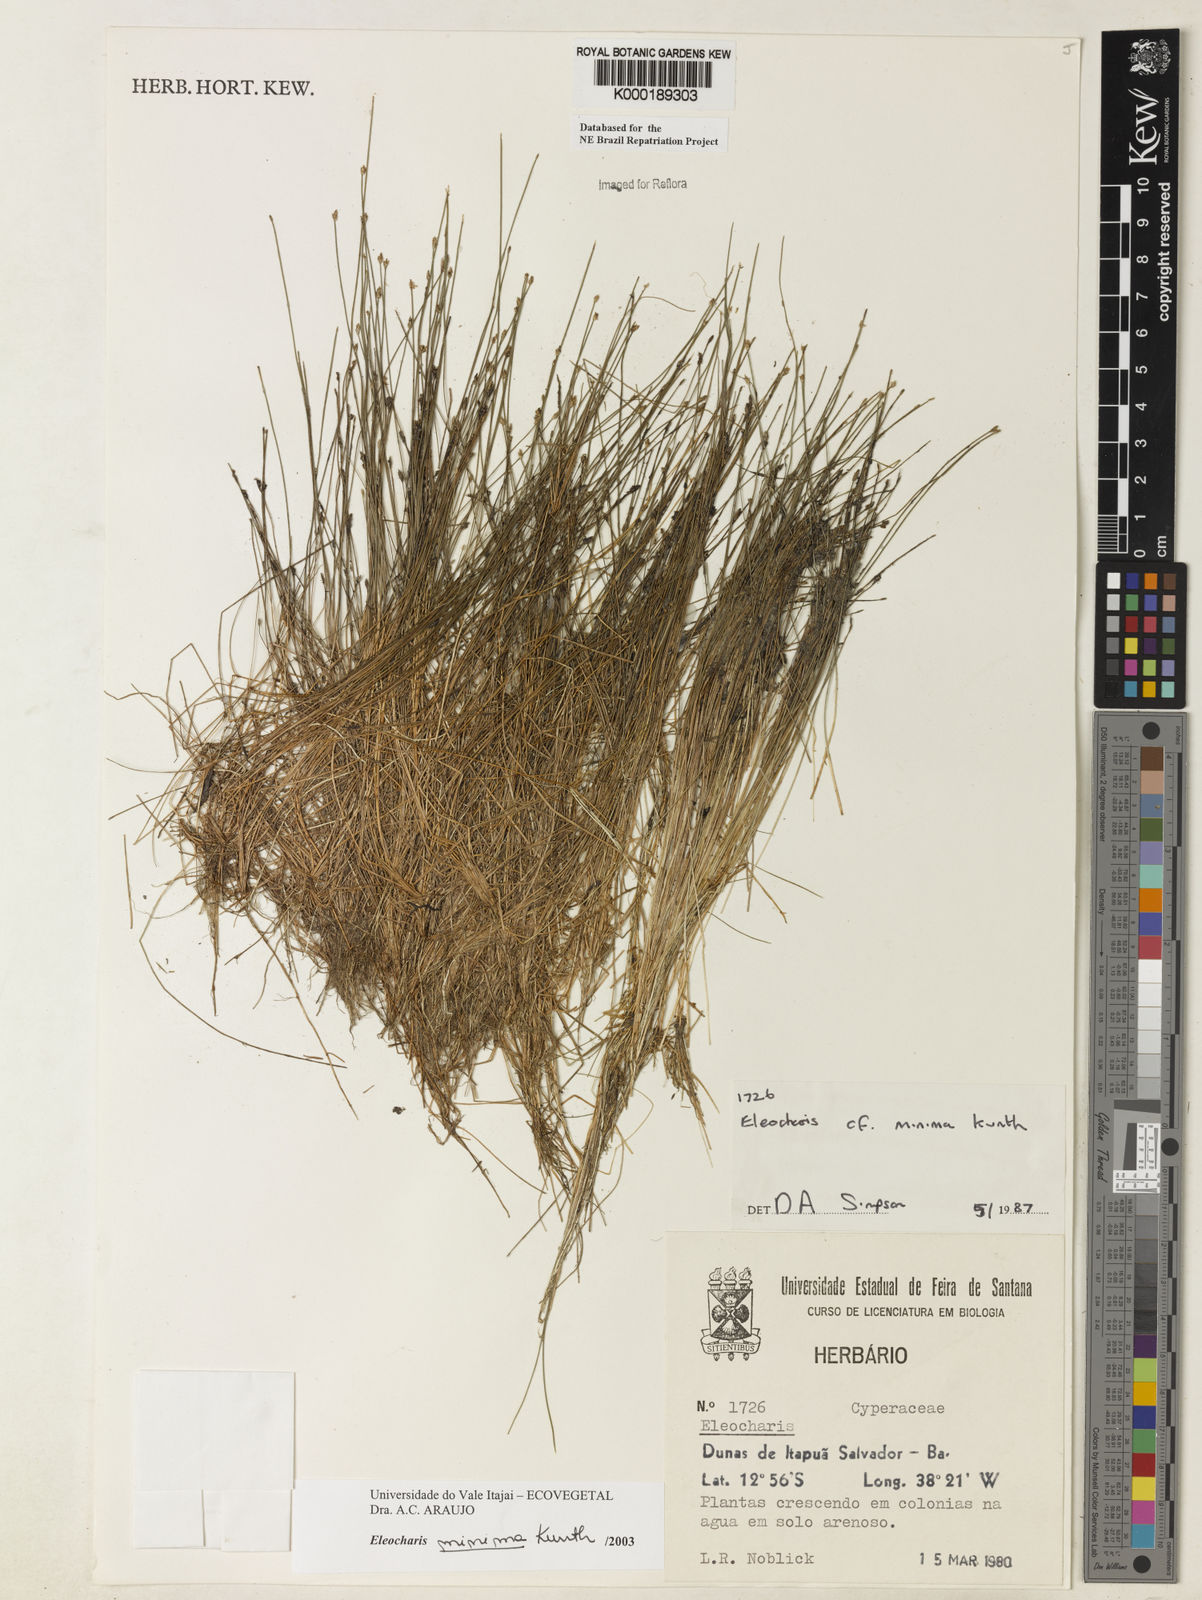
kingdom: Plantae
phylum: Tracheophyta
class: Liliopsida
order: Poales
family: Cyperaceae
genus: Eleocharis
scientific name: Eleocharis
